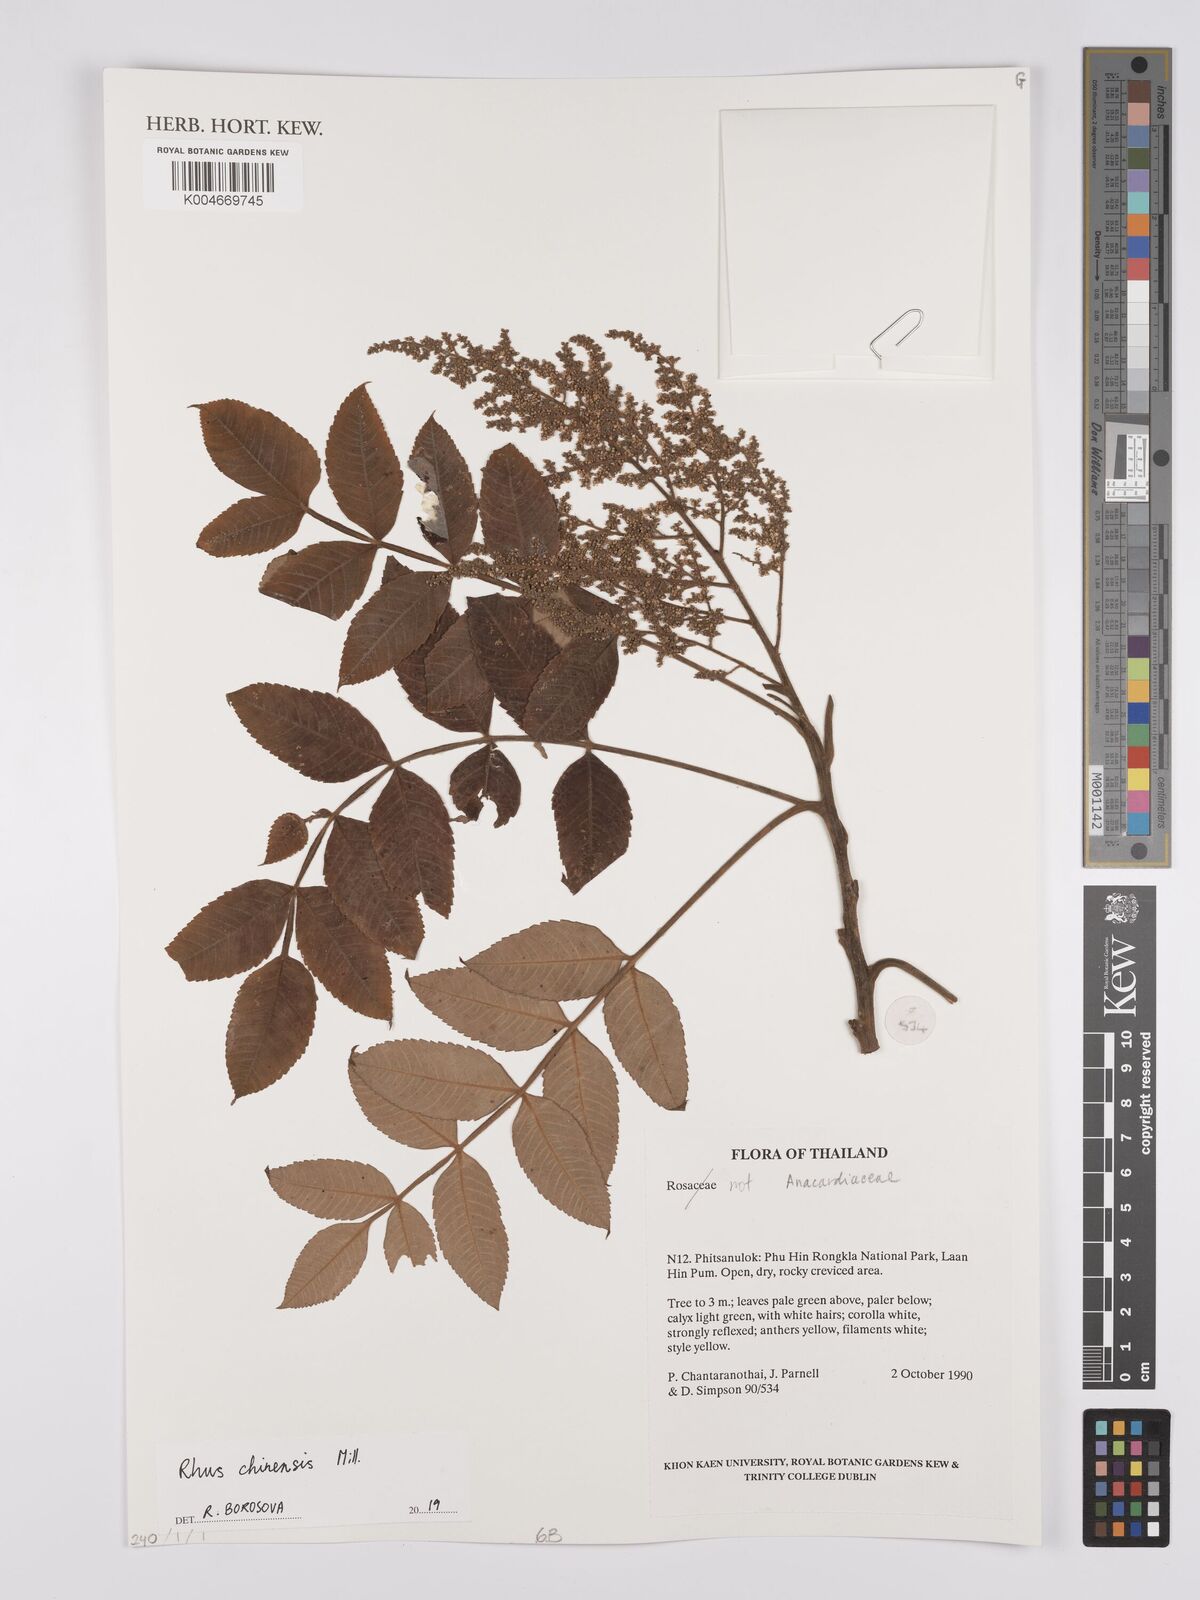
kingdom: Plantae
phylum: Tracheophyta
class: Magnoliopsida
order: Sapindales
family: Anacardiaceae
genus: Rhus
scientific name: Rhus chinensis
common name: Chinese gall
